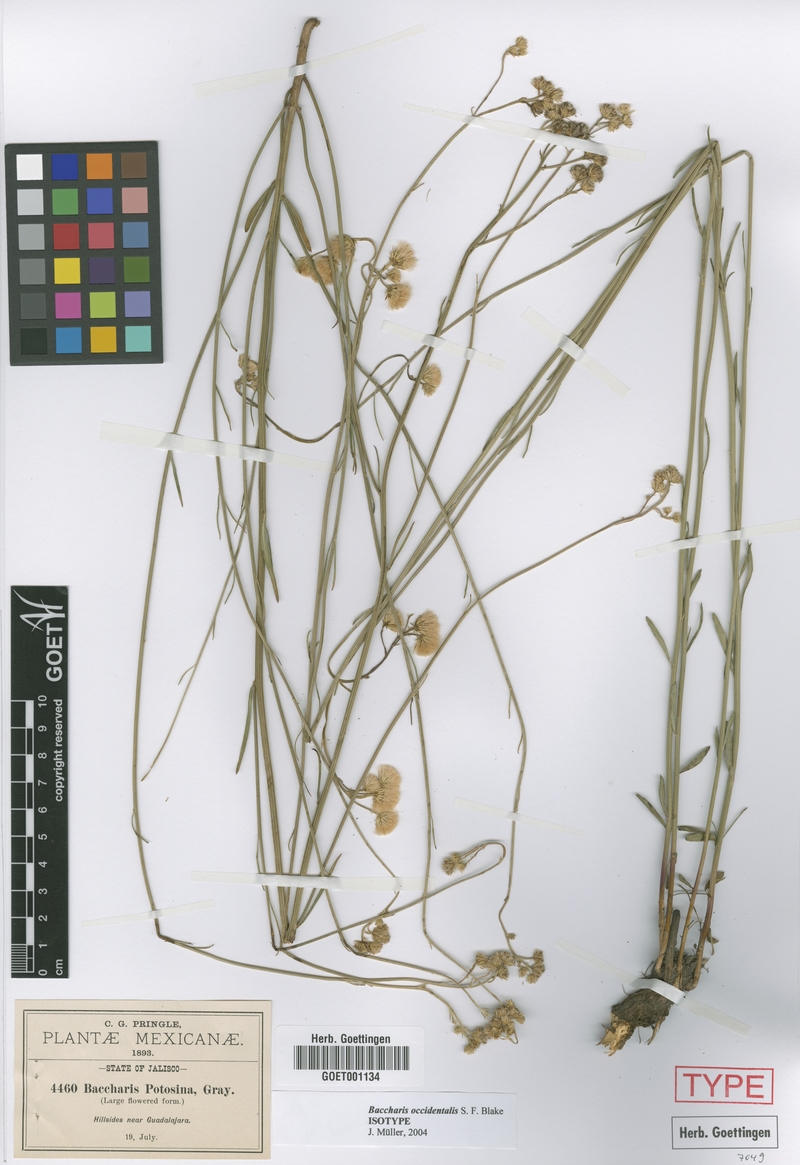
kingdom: Plantae
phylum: Tracheophyta
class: Magnoliopsida
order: Asterales
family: Asteraceae
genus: Baccharis
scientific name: Baccharis occidentalis
